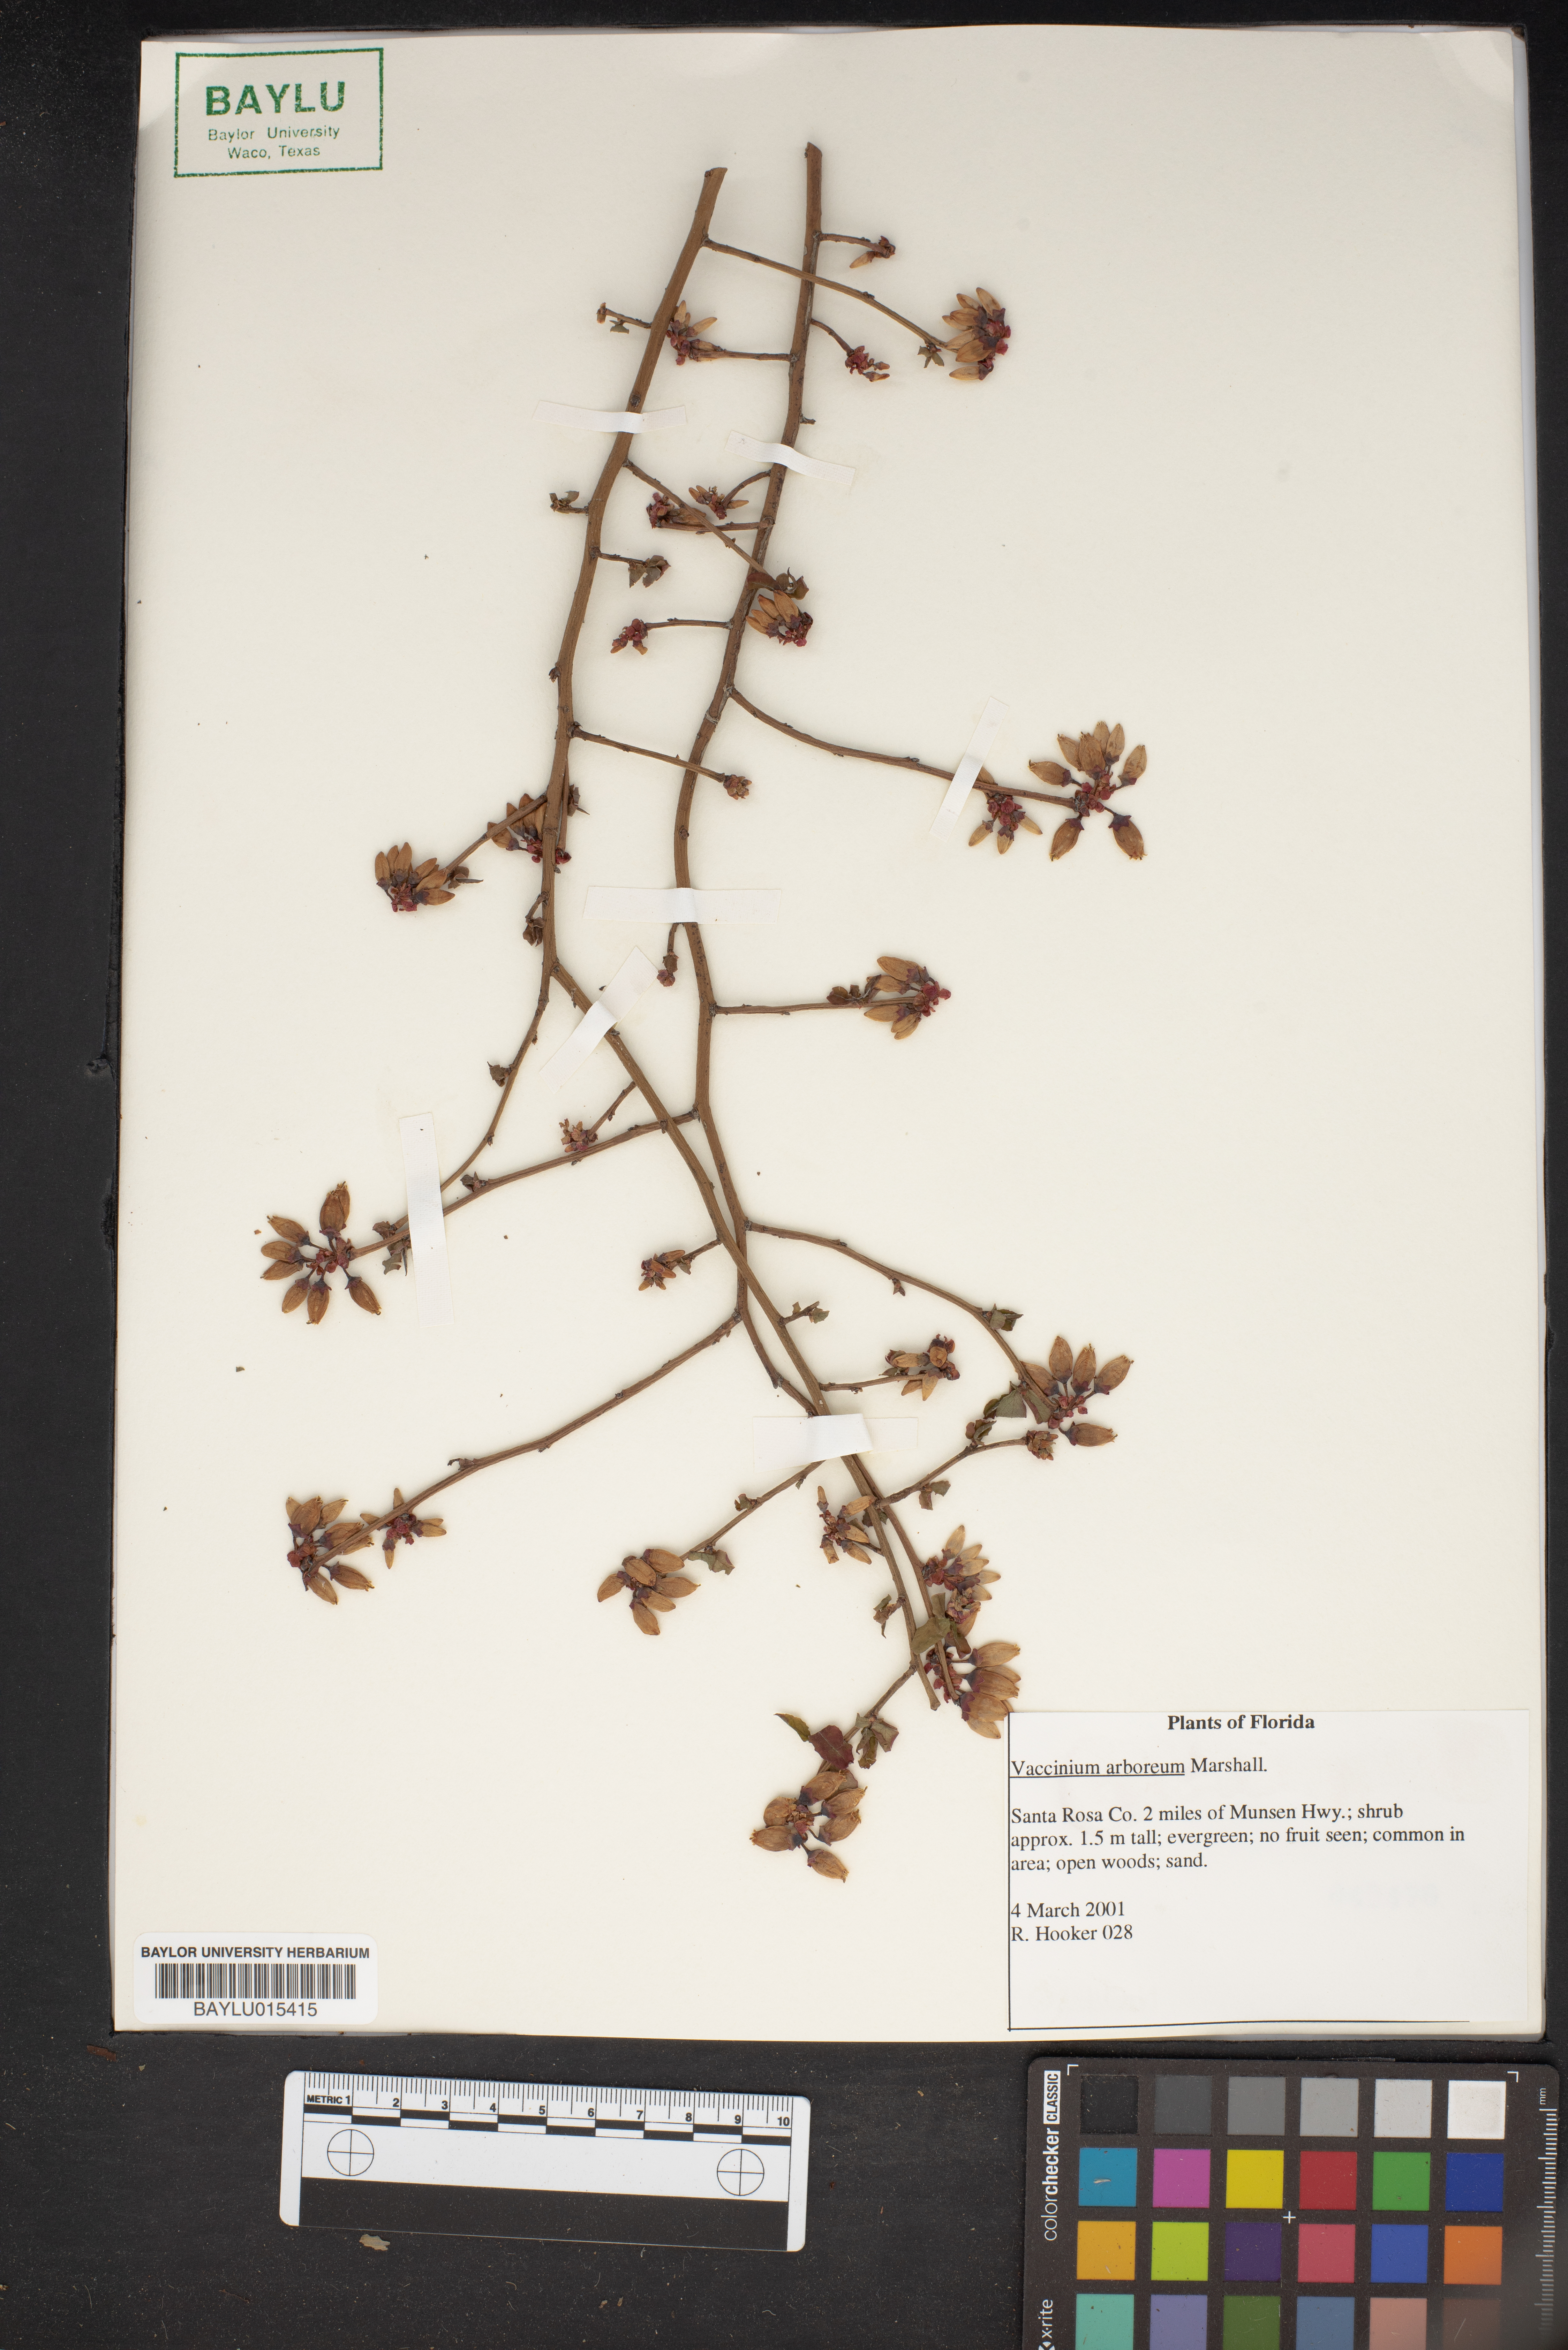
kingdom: Plantae
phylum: Tracheophyta
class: Magnoliopsida
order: Ericales
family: Ericaceae
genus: Vaccinium
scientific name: Vaccinium arboreum
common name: Farkleberry
